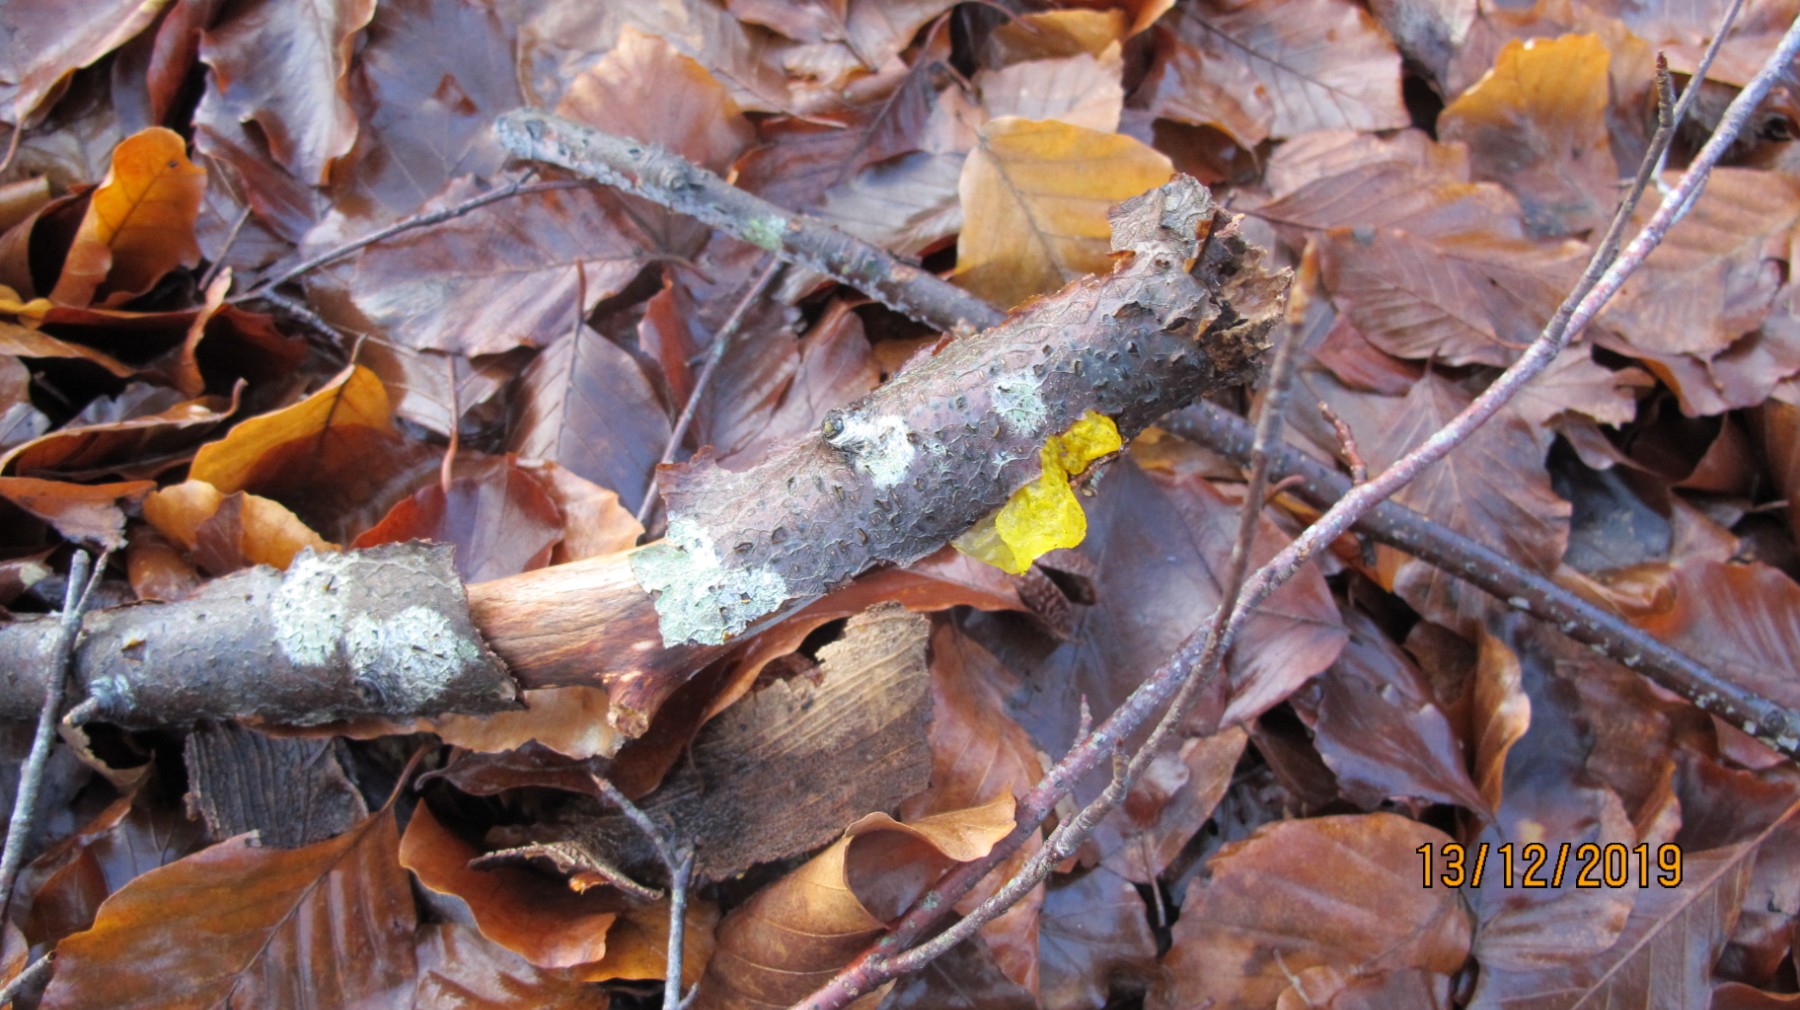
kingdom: Fungi
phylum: Basidiomycota
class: Tremellomycetes
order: Tremellales
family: Tremellaceae
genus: Tremella
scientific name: Tremella mesenterica
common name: gul bævresvamp
